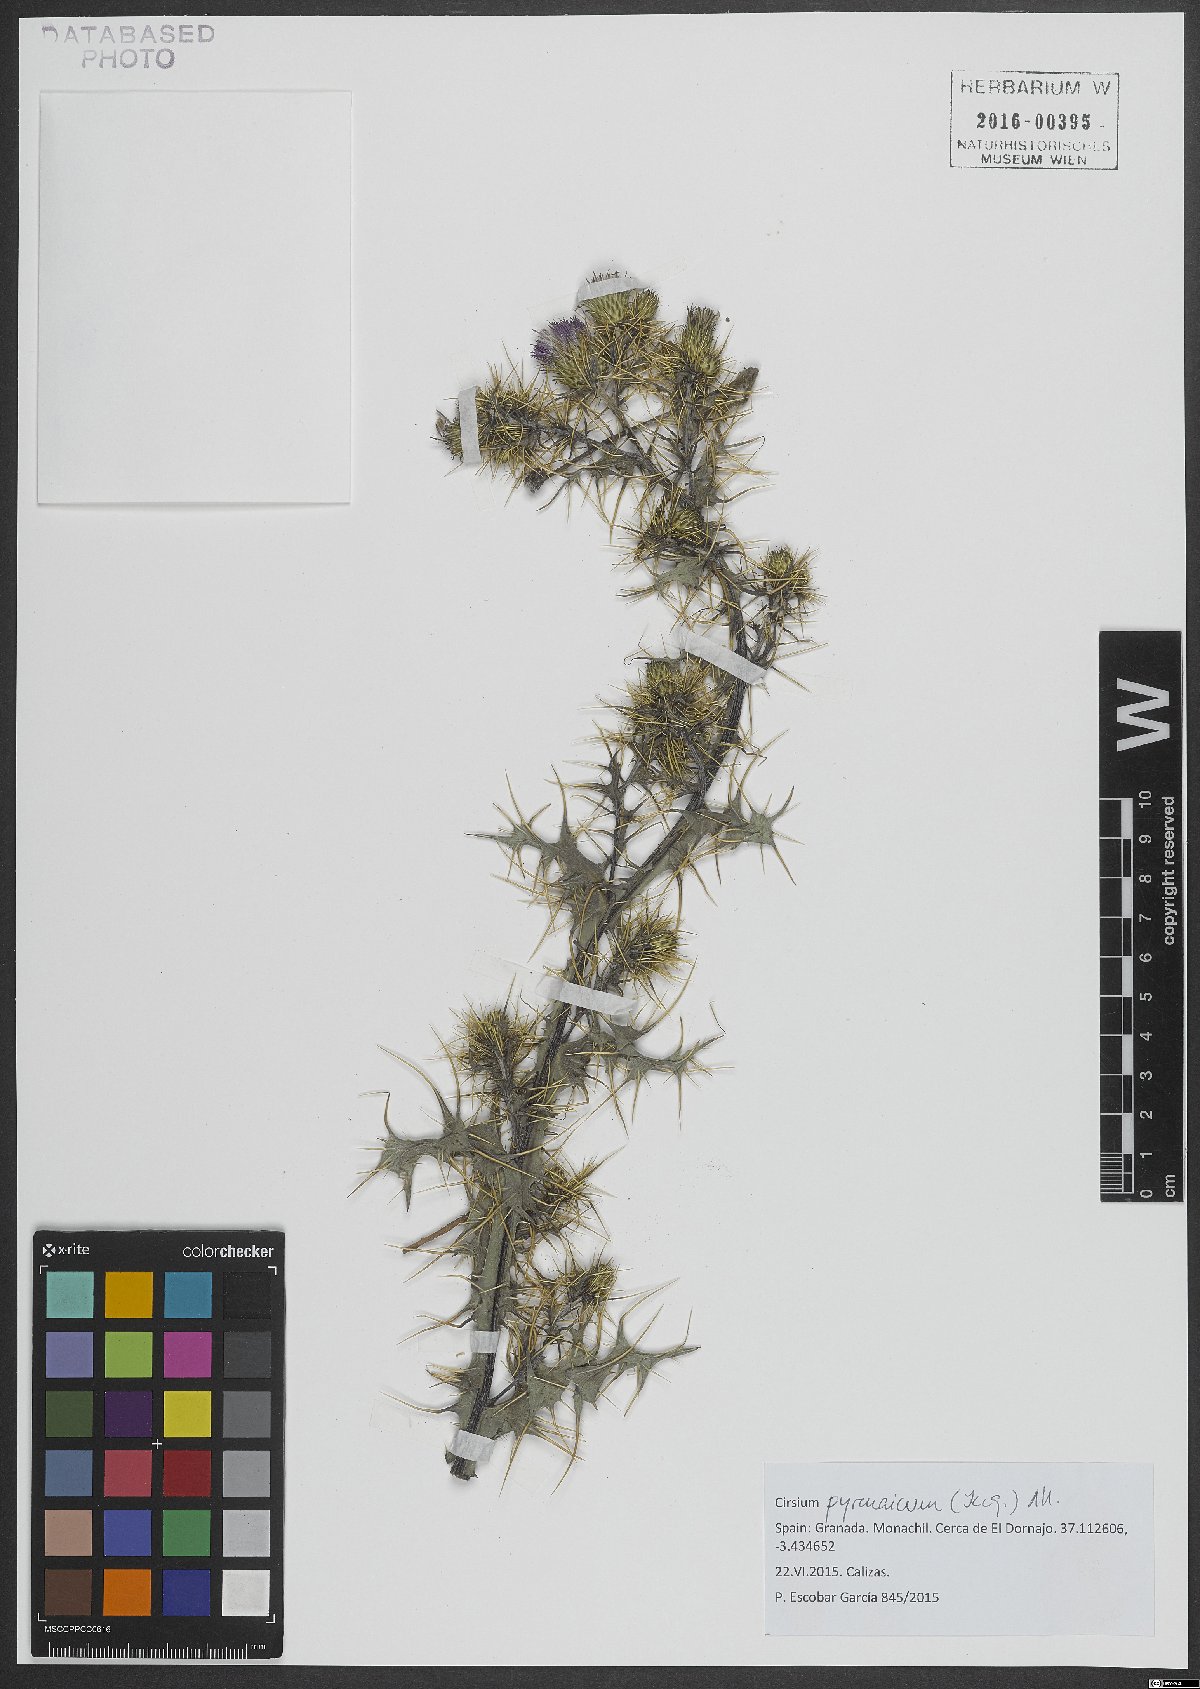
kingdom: Plantae
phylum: Tracheophyta
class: Magnoliopsida
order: Asterales
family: Asteraceae
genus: Cirsium
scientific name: Cirsium pyrenaicum
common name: Pyrenean thistle
